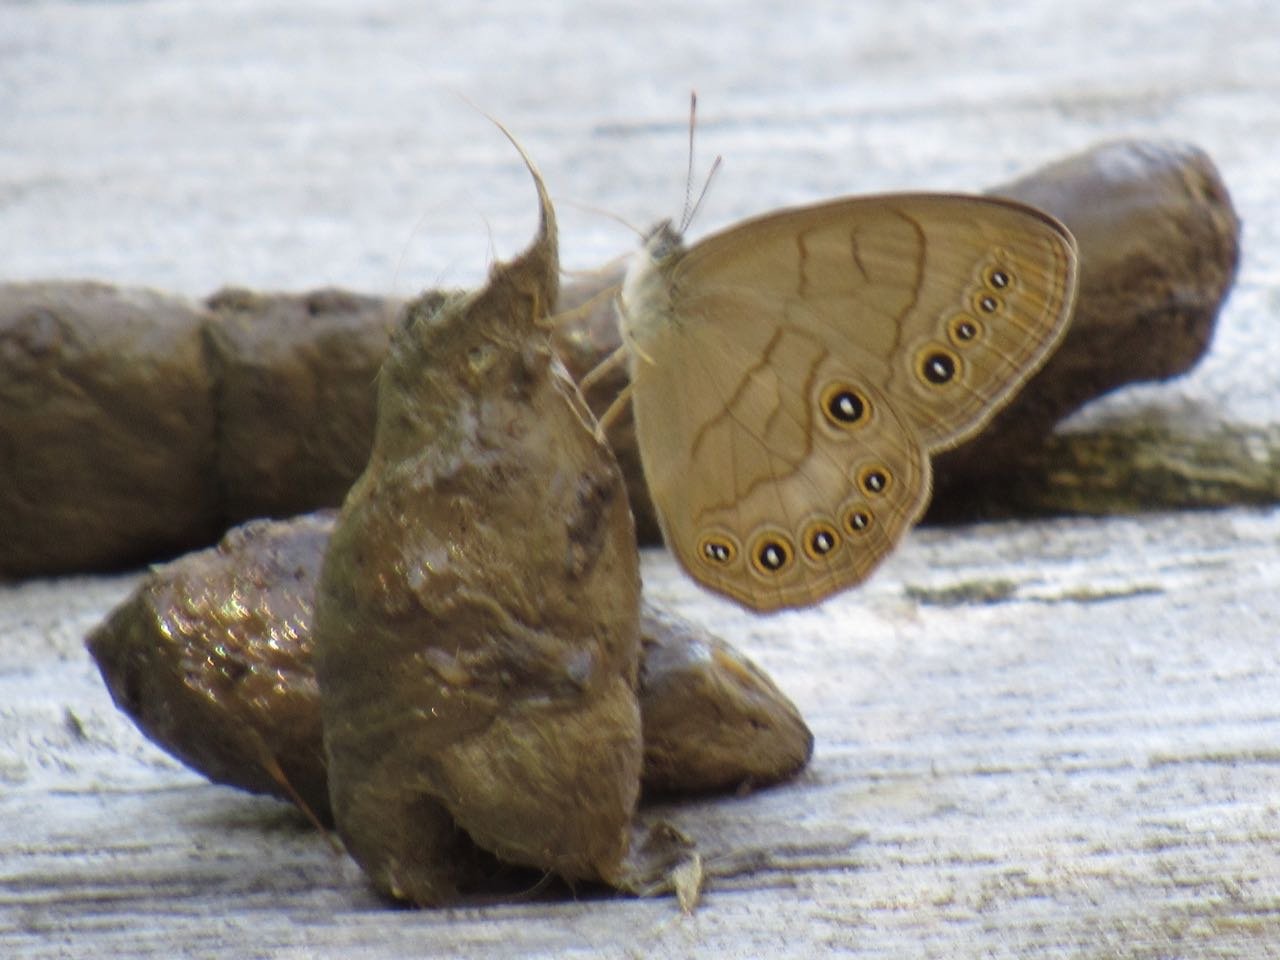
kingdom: Animalia
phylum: Arthropoda
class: Insecta
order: Lepidoptera
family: Nymphalidae
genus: Lethe
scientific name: Lethe eurydice
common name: Appalachian Eyed Brown
